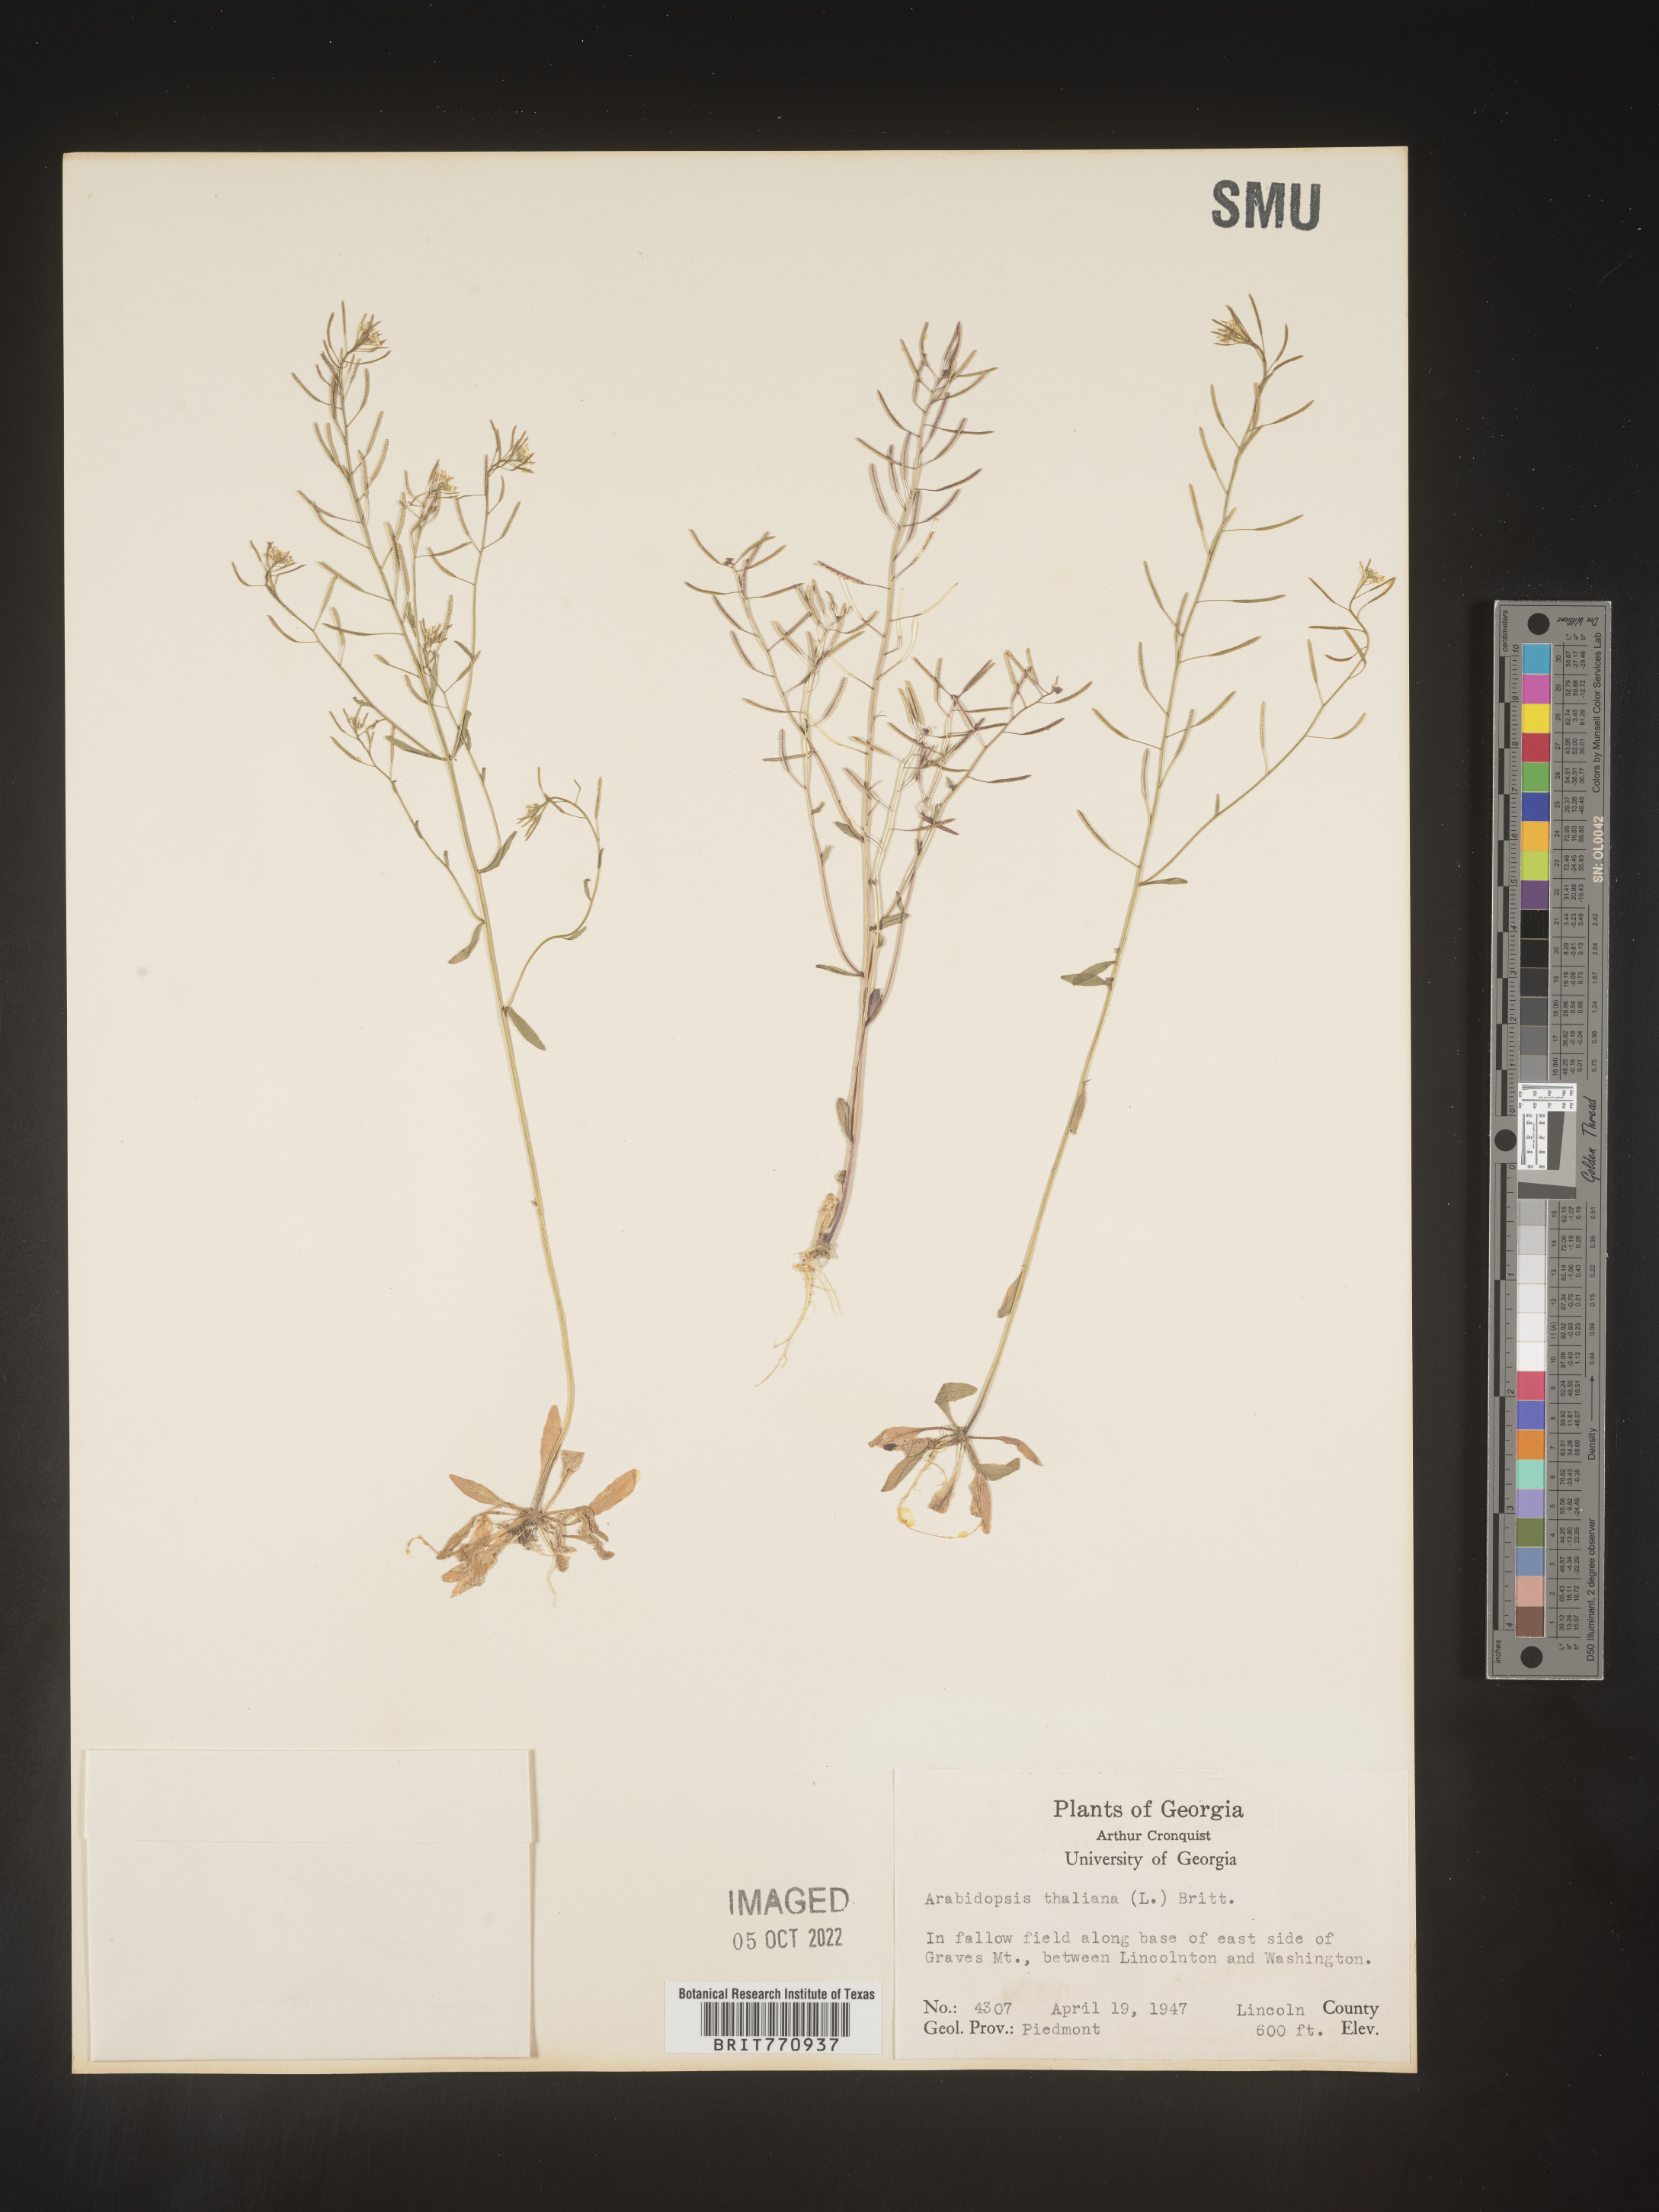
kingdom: Plantae
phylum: Tracheophyta
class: Magnoliopsida
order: Brassicales
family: Brassicaceae
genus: Arabidopsis
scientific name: Arabidopsis thaliana
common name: Thale cress
